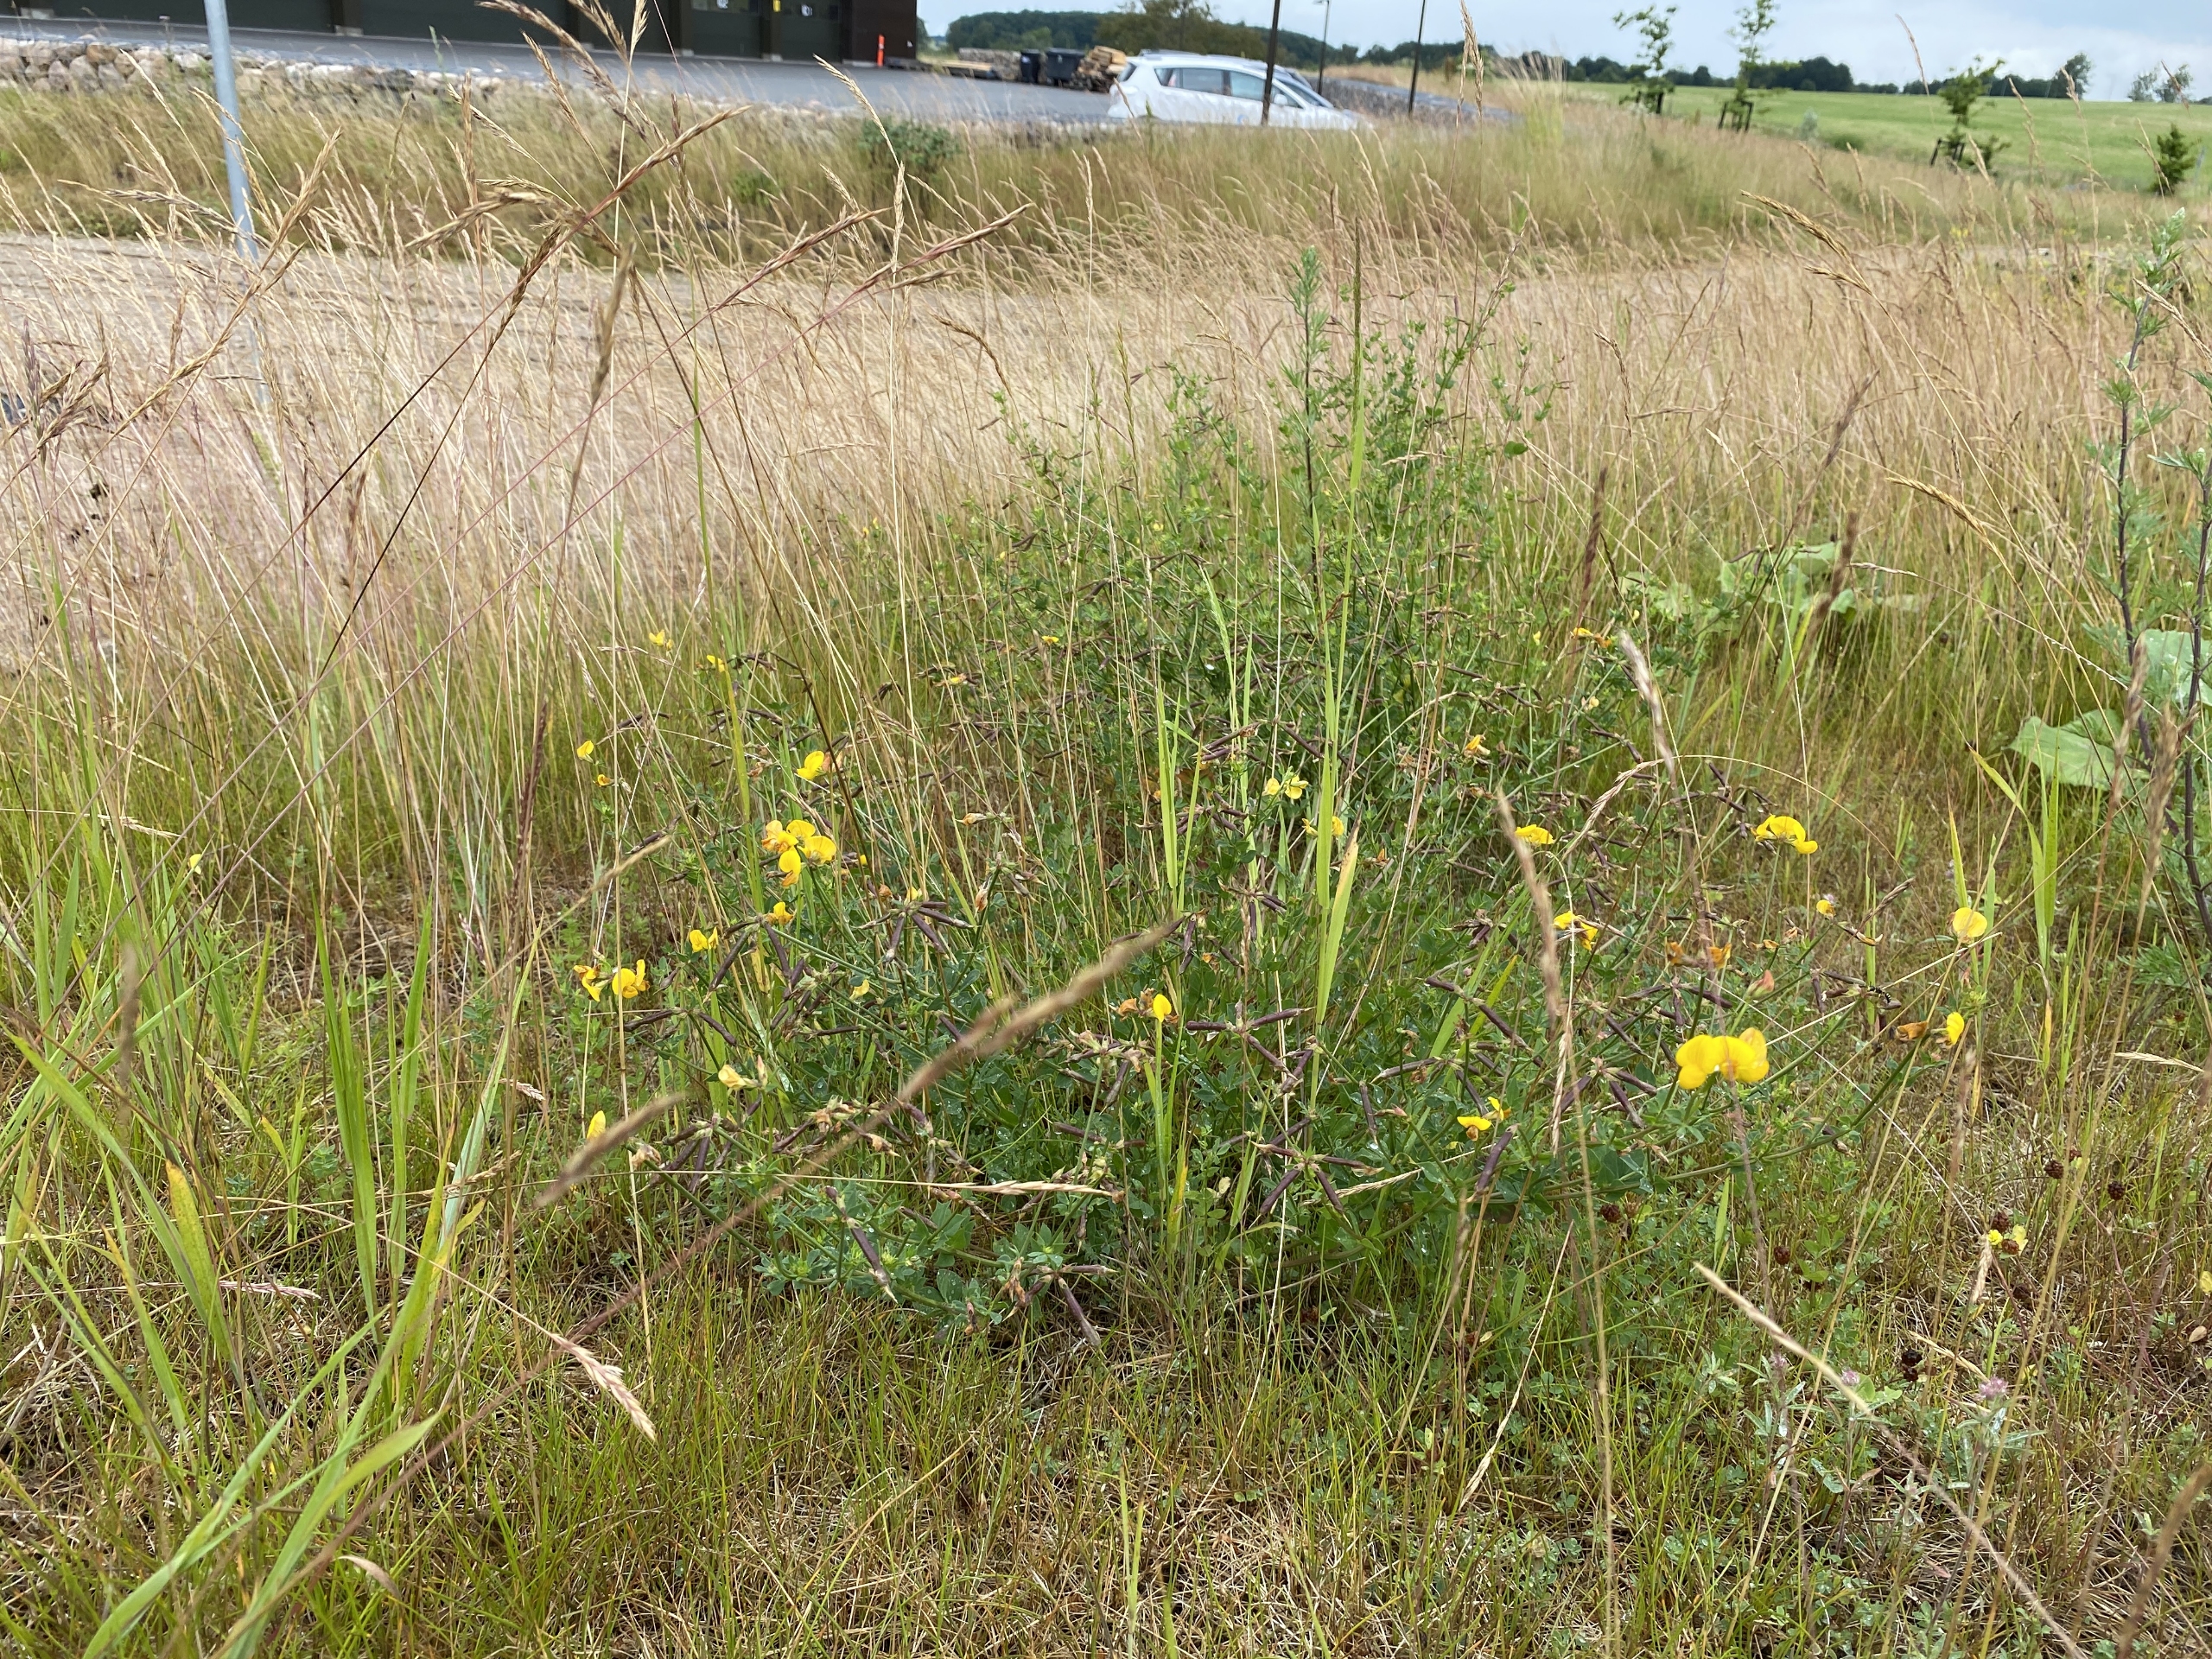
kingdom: Plantae
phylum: Tracheophyta
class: Magnoliopsida
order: Fabales
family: Fabaceae
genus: Lotus
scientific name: Lotus corniculatus
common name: Almindelig kællingetand
